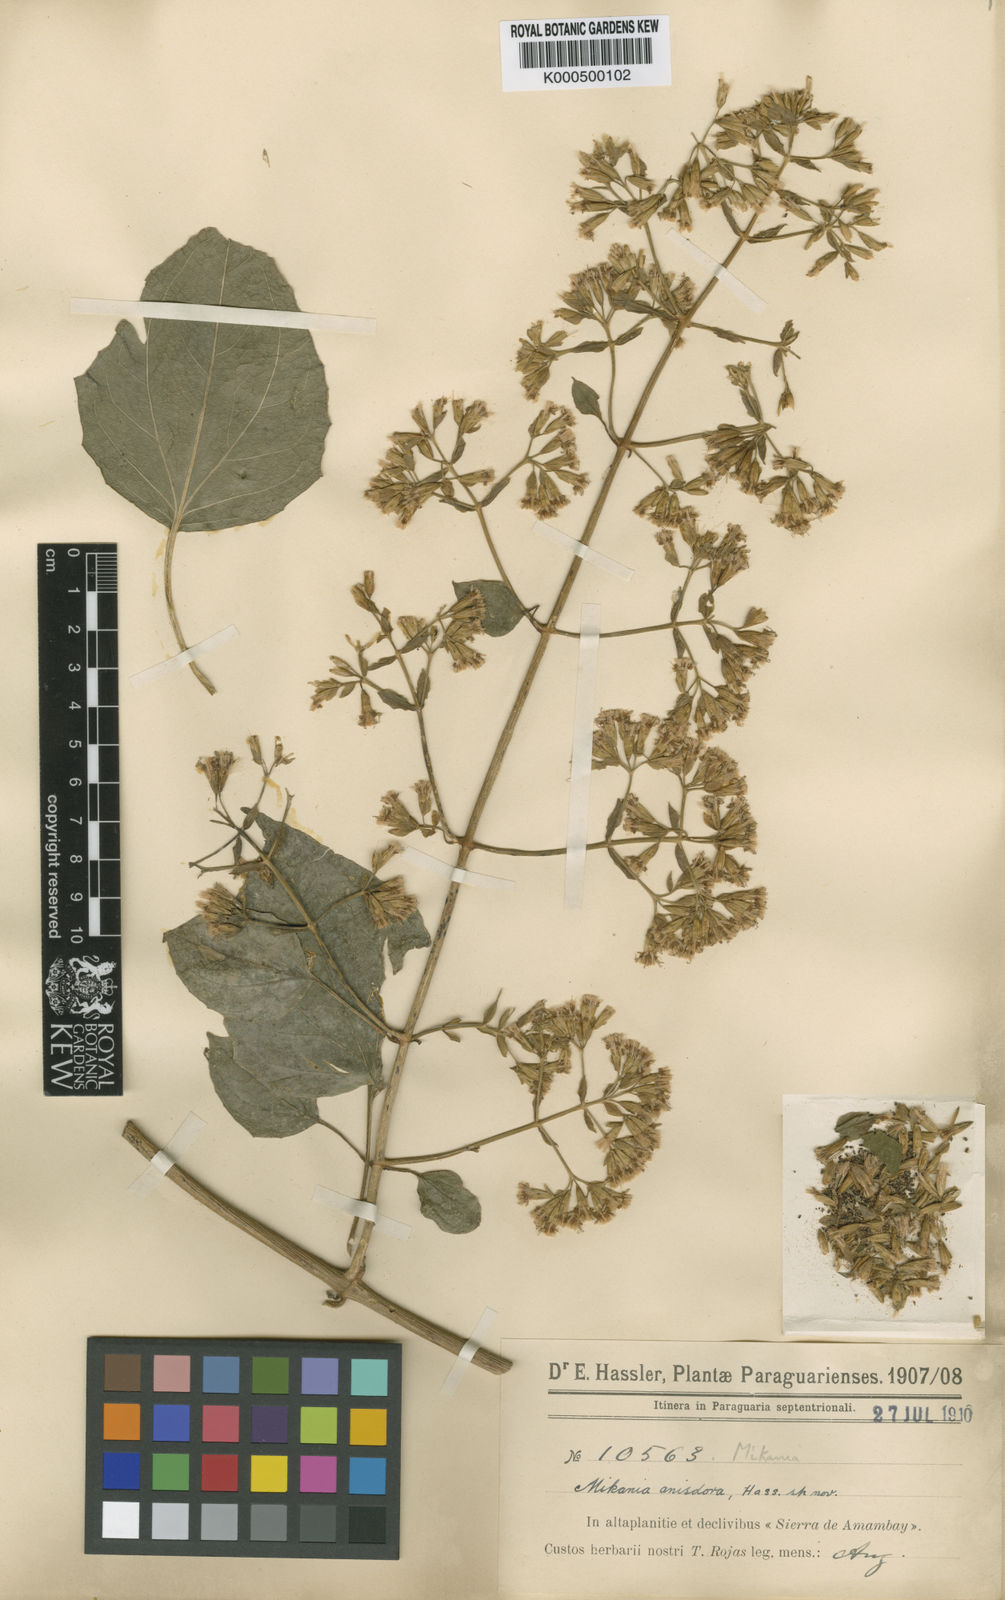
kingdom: Plantae
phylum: Tracheophyta
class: Magnoliopsida
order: Asterales
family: Asteraceae
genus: Mikania
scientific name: Mikania anisodora
